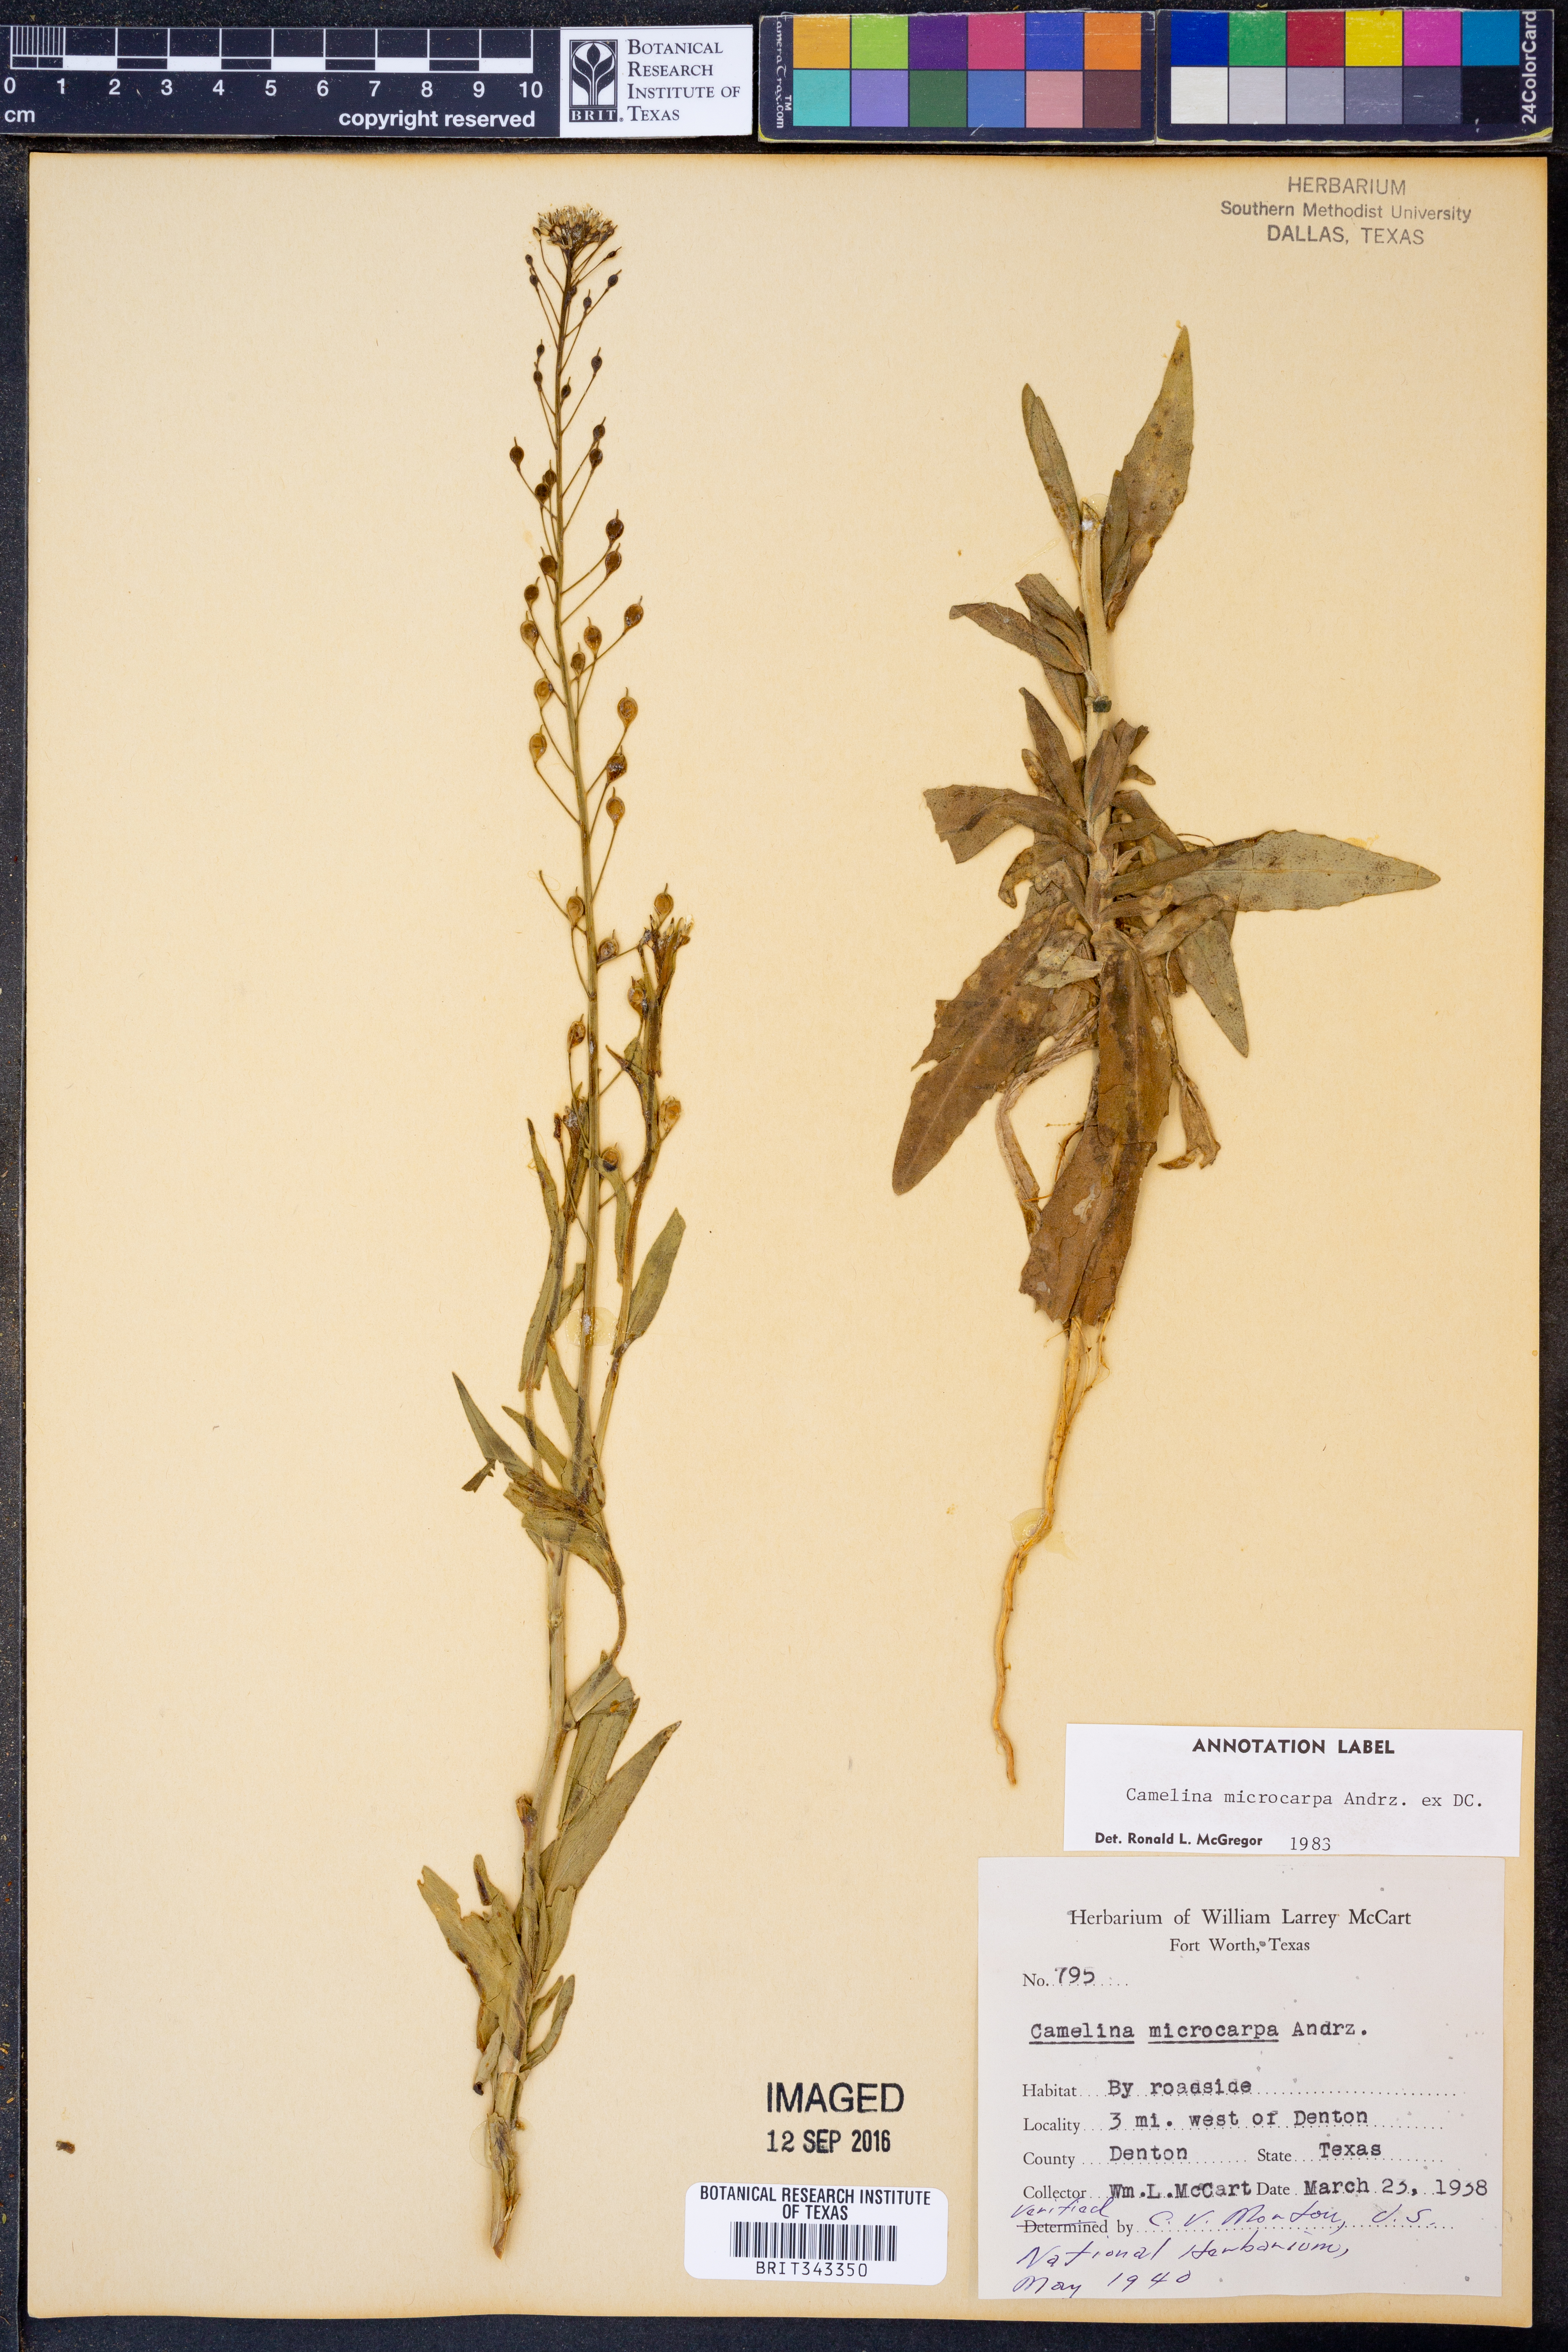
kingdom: Plantae
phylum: Tracheophyta
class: Magnoliopsida
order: Brassicales
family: Brassicaceae
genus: Camelina
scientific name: Camelina microcarpa
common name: Lesser gold-of-pleasure
